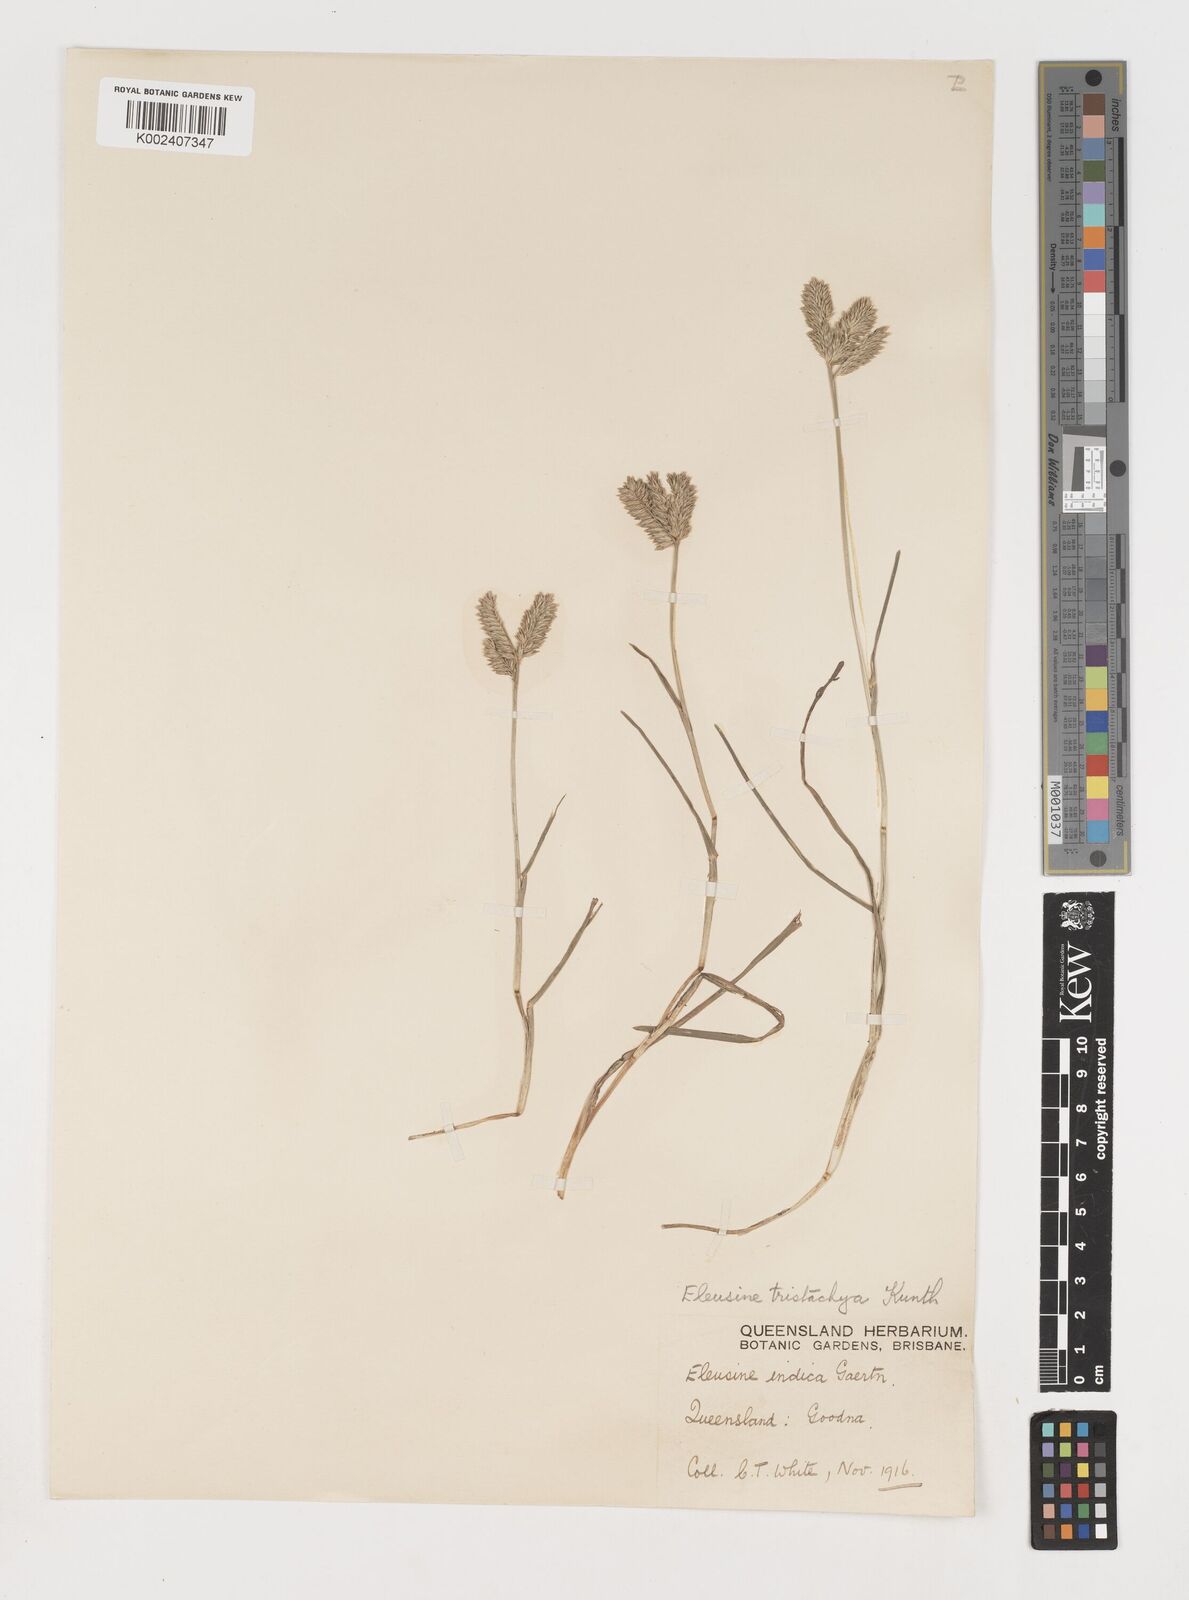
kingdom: Plantae
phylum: Tracheophyta
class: Liliopsida
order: Poales
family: Poaceae
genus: Eleusine
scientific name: Eleusine tristachya
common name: American yard-grass
